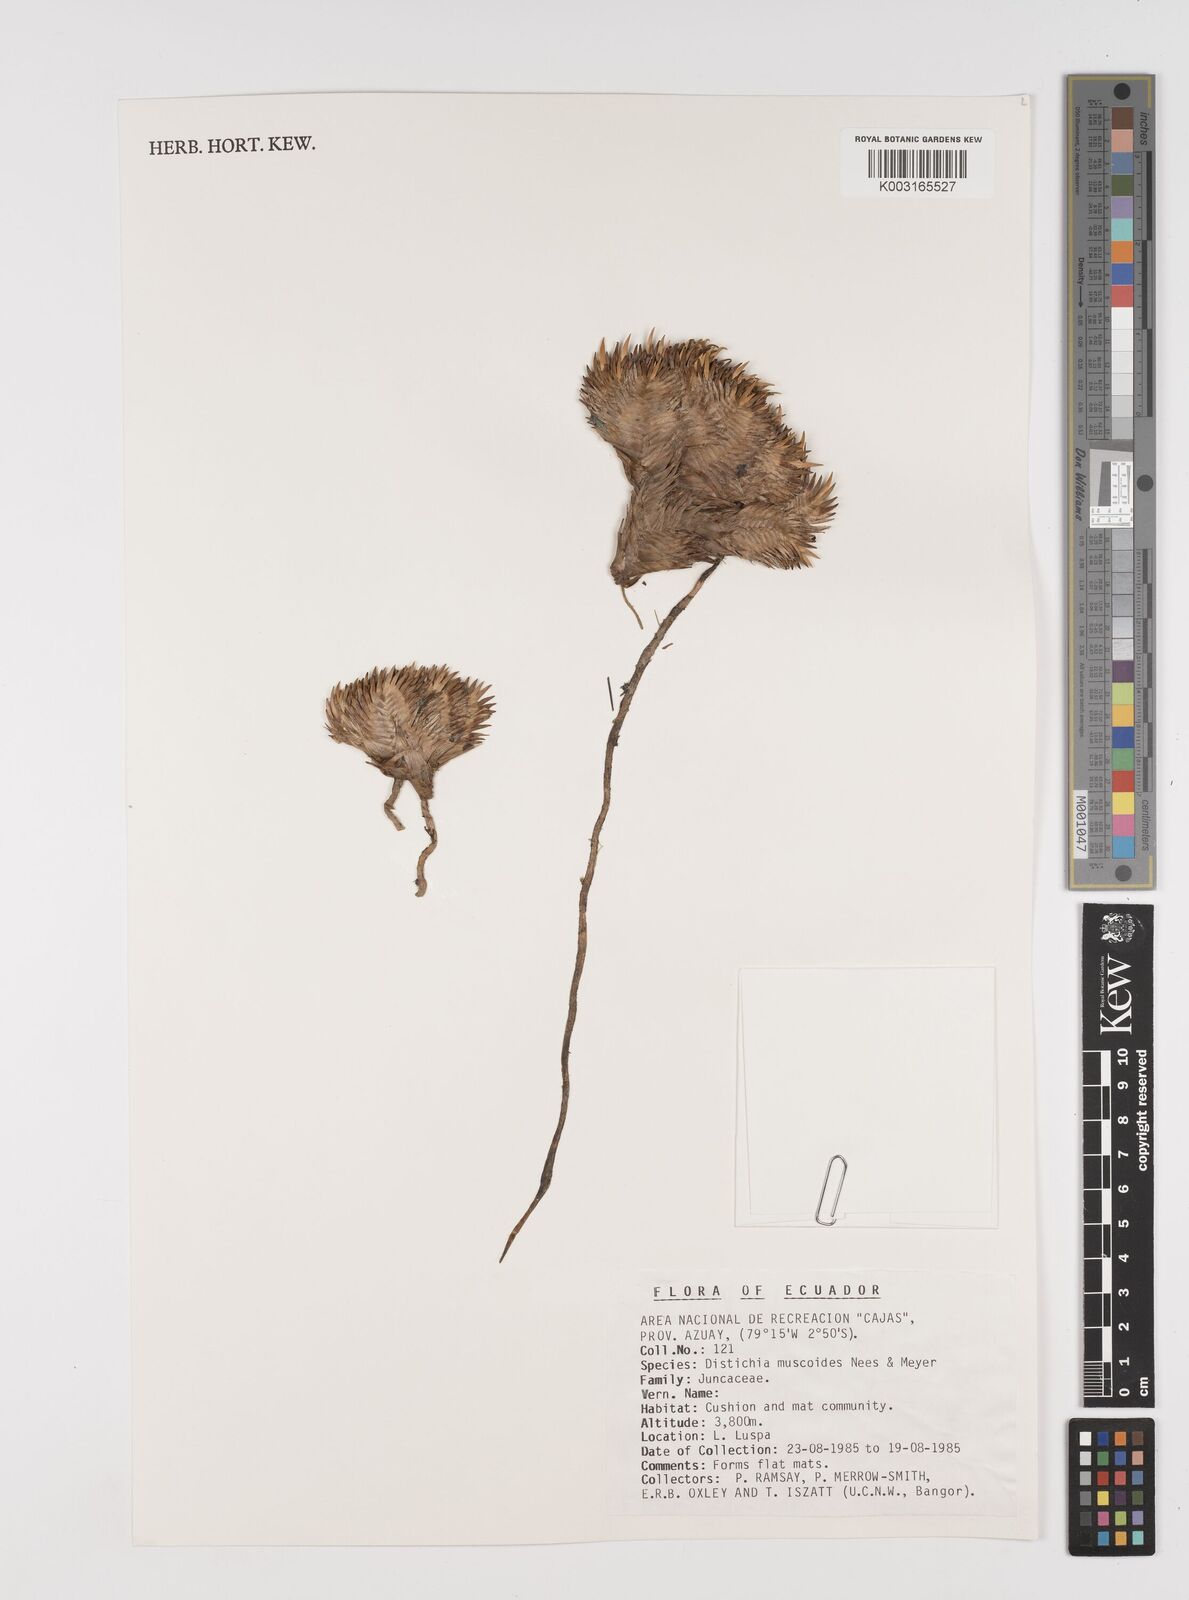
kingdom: Plantae
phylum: Tracheophyta
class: Liliopsida
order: Poales
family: Juncaceae
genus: Distichia
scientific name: Distichia muscoides
